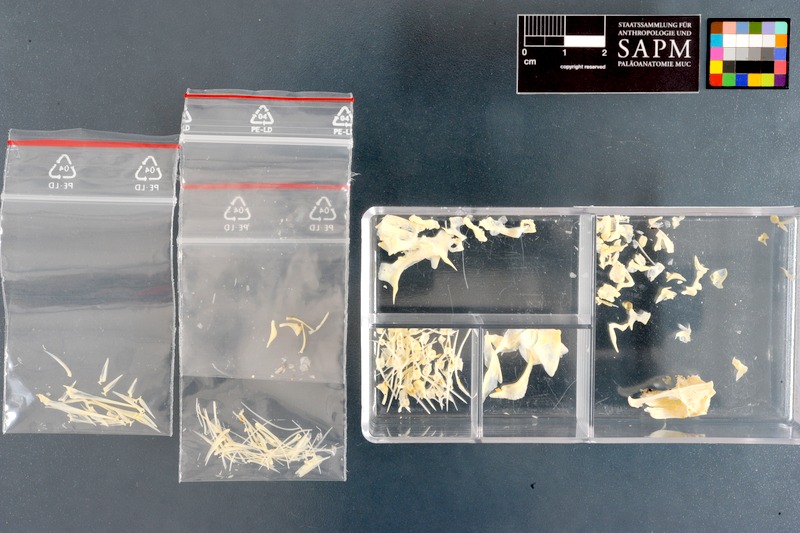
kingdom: Animalia
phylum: Chordata
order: Perciformes
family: Cheilodactylidae
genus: Chirodactylus
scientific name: Chirodactylus brachydactylus
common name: Butterfish
